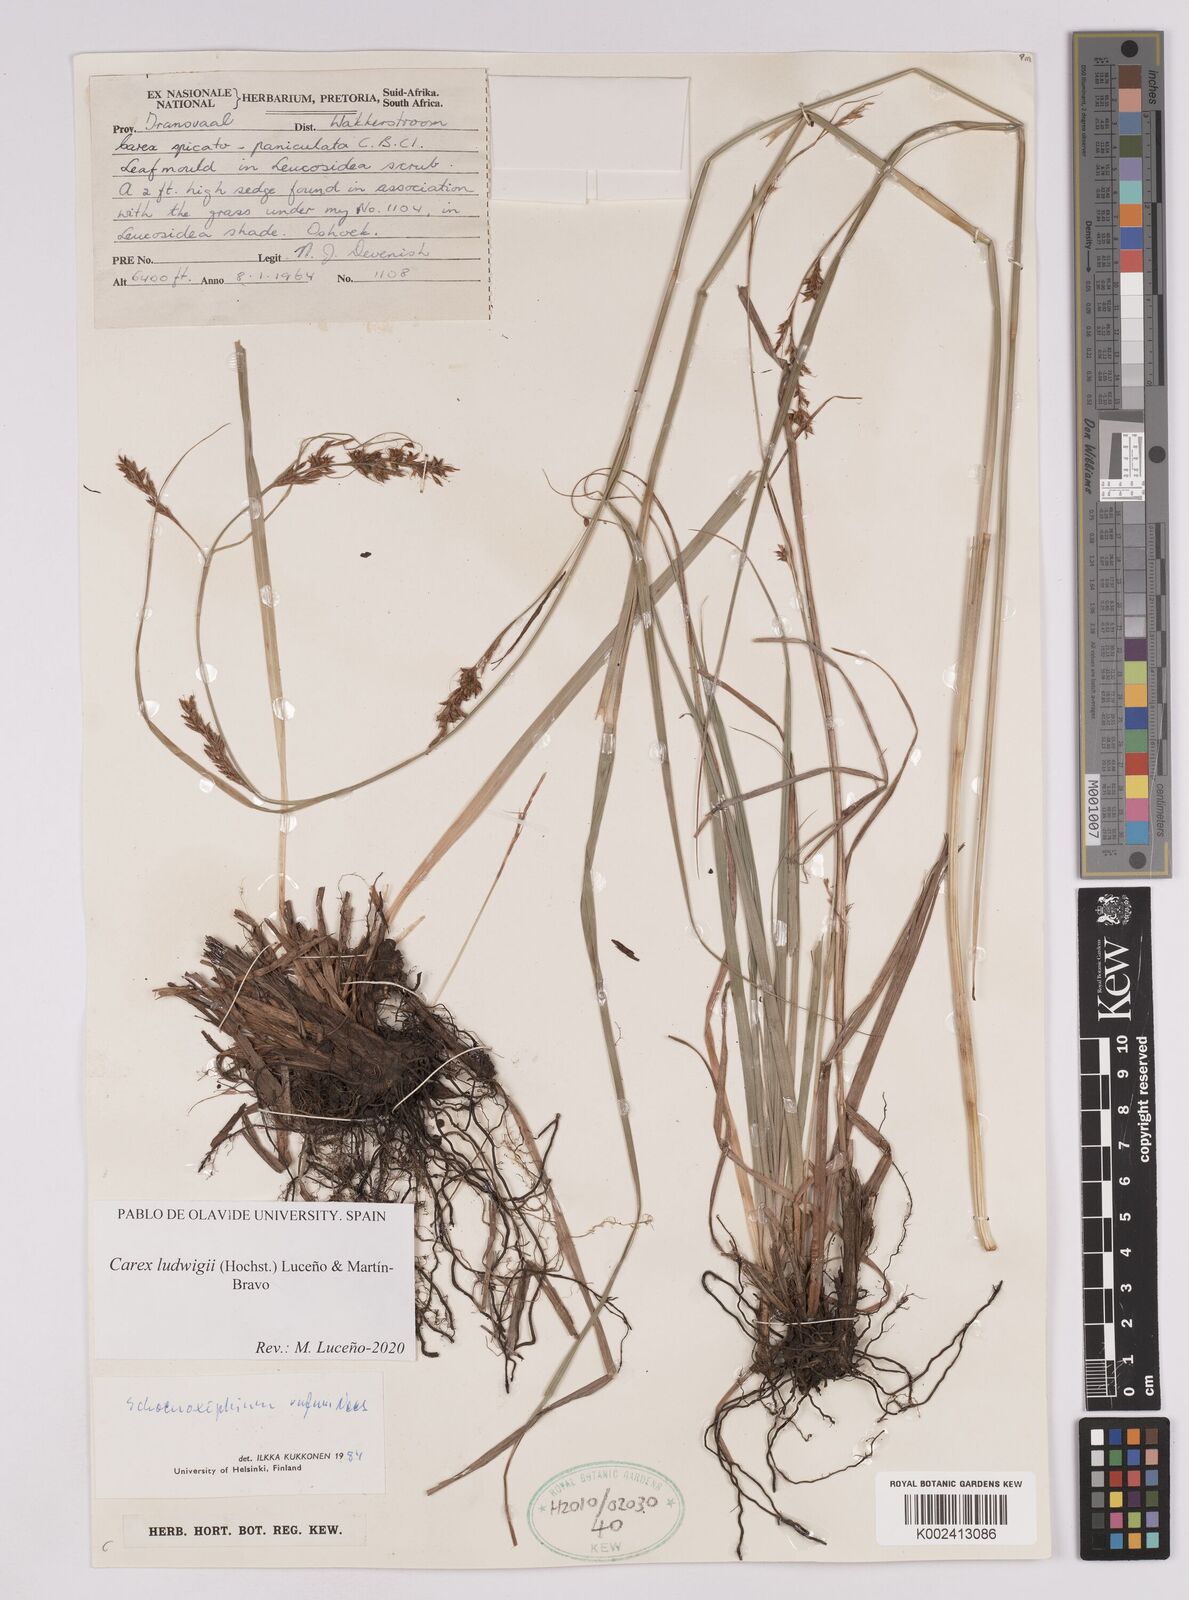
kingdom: Plantae
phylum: Tracheophyta
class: Liliopsida
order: Poales
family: Cyperaceae
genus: Carex
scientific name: Carex ludwigii
